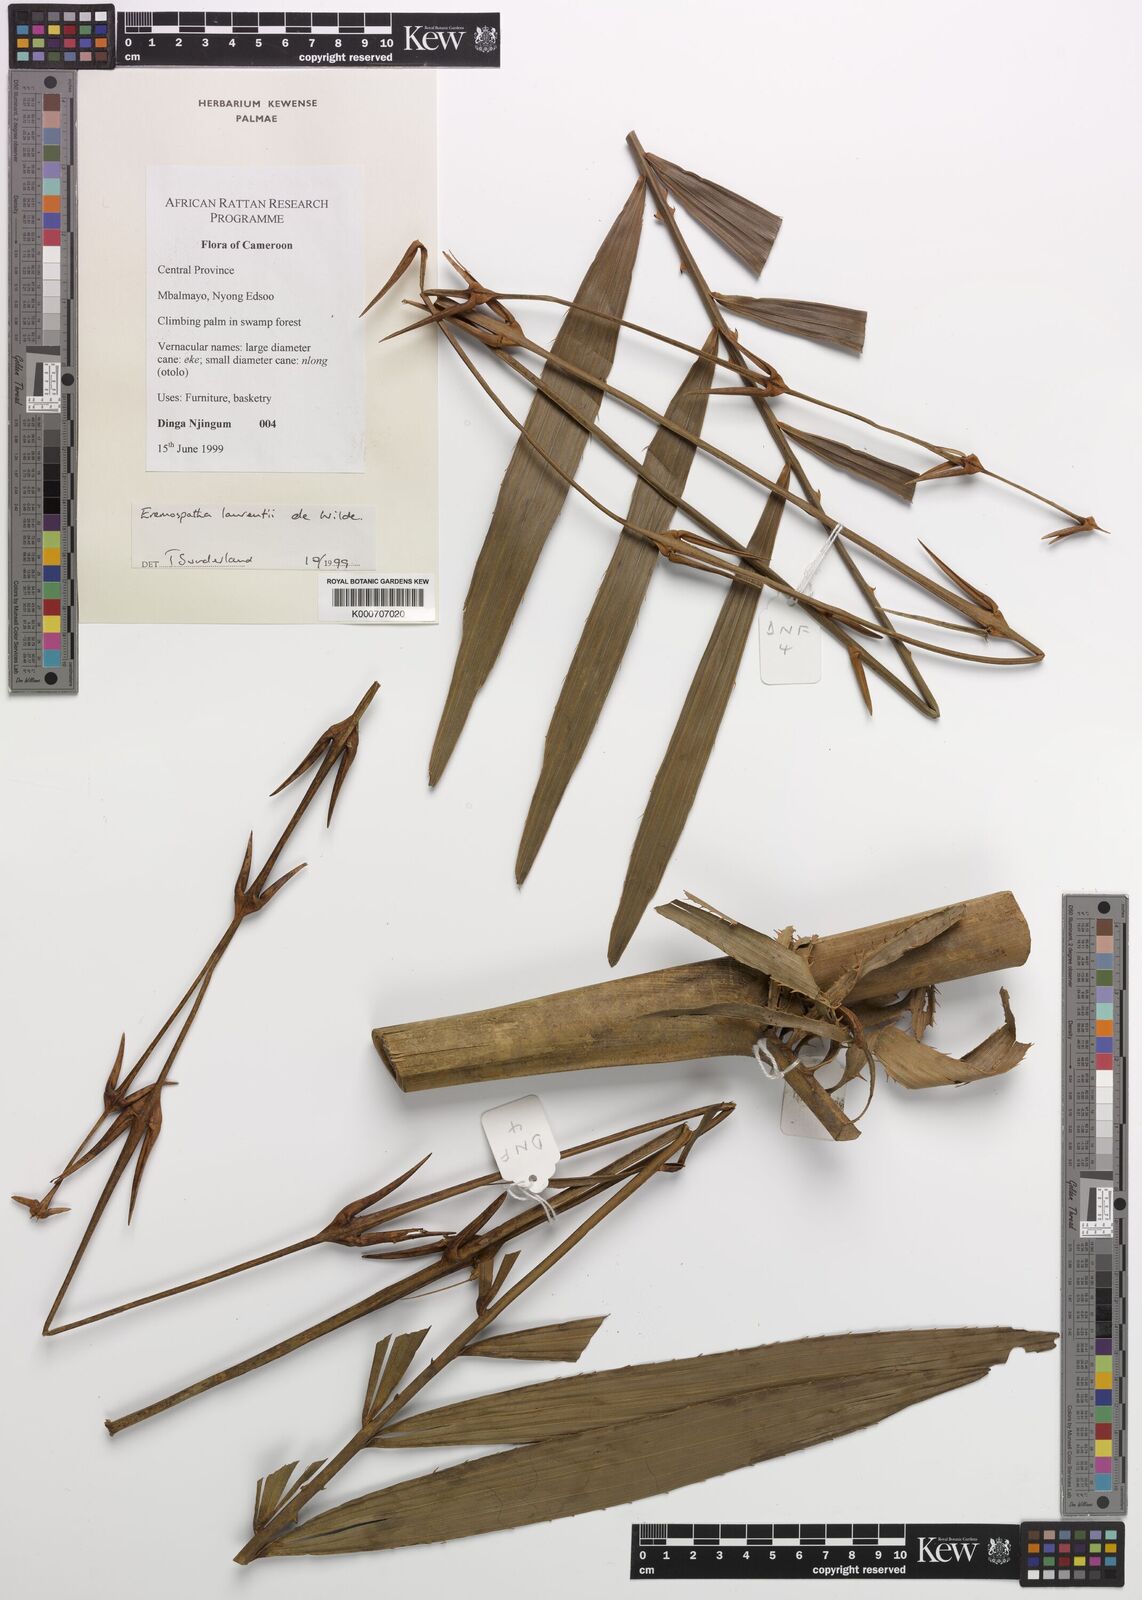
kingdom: Plantae
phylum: Tracheophyta
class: Liliopsida
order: Arecales
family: Arecaceae
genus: Eremospatha
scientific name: Eremospatha laurentii
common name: Rattan palm
